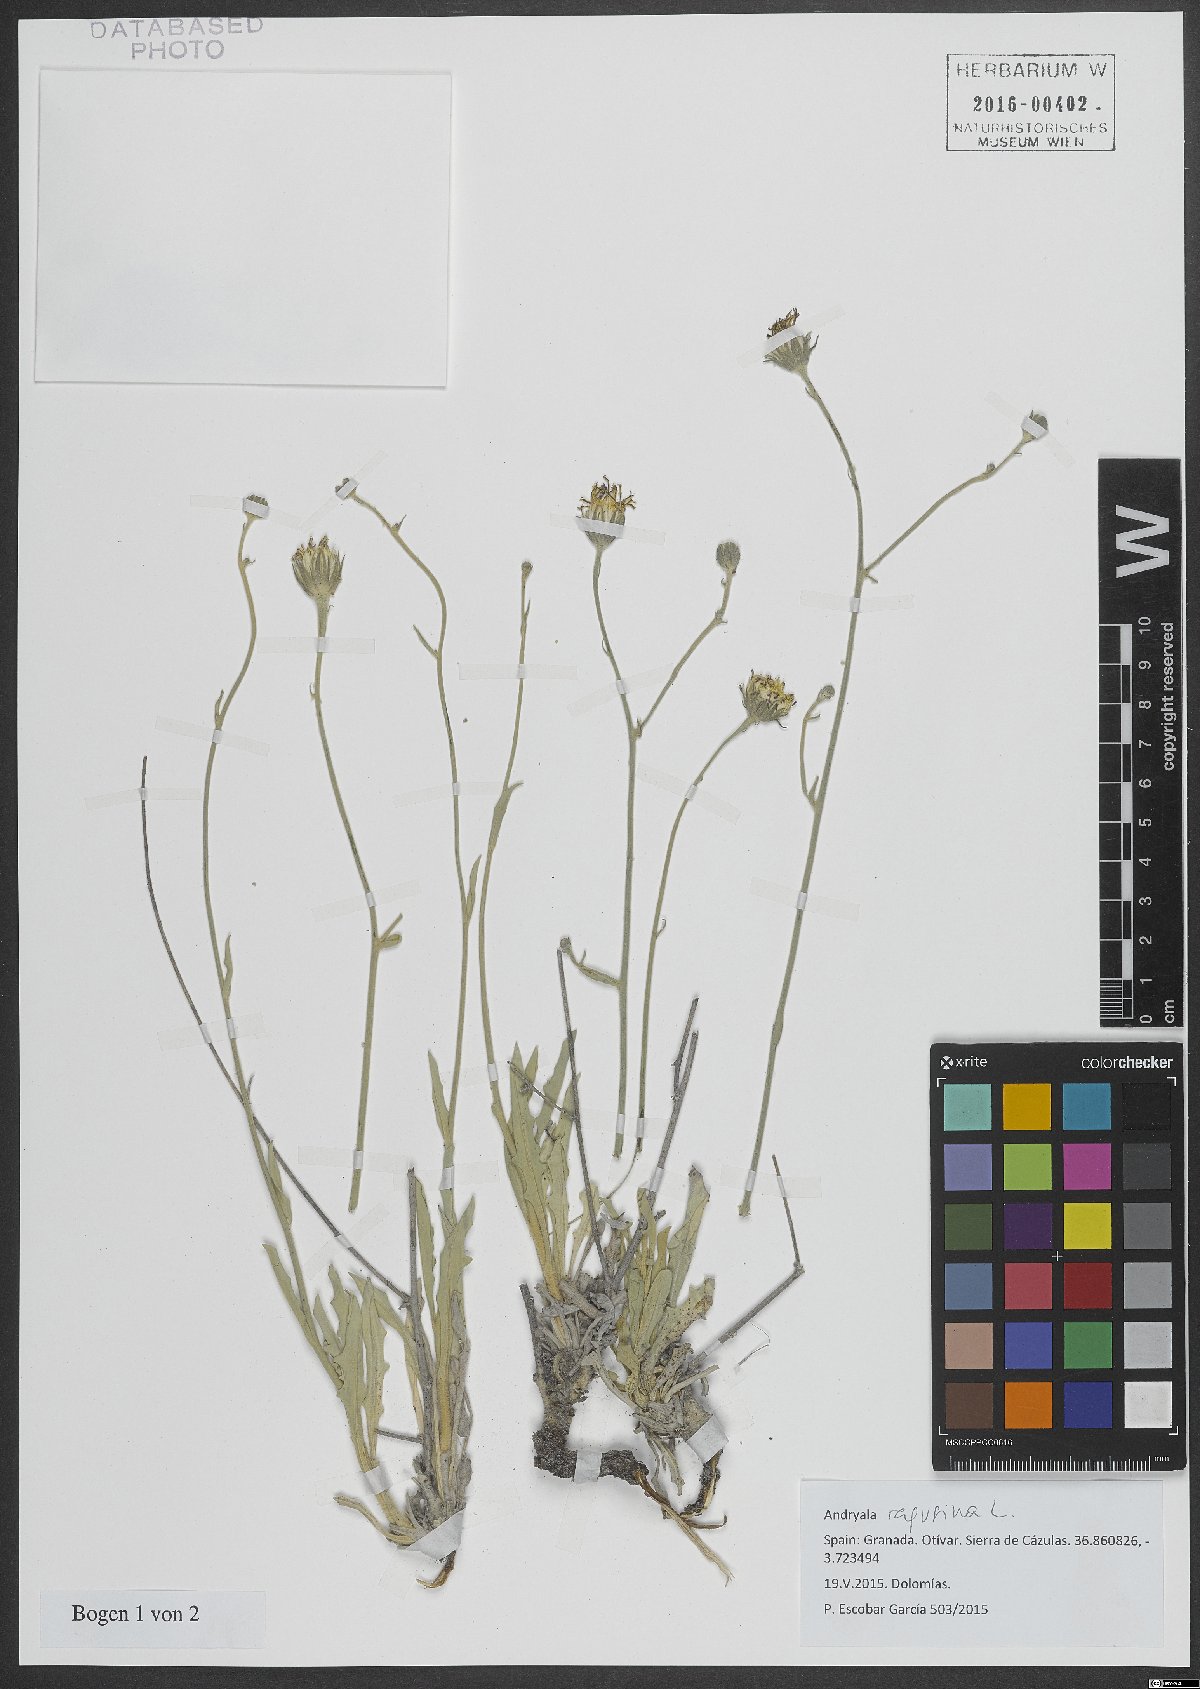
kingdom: Plantae
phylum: Tracheophyta
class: Magnoliopsida
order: Asterales
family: Asteraceae
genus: Andryala
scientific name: Andryala ragusina
